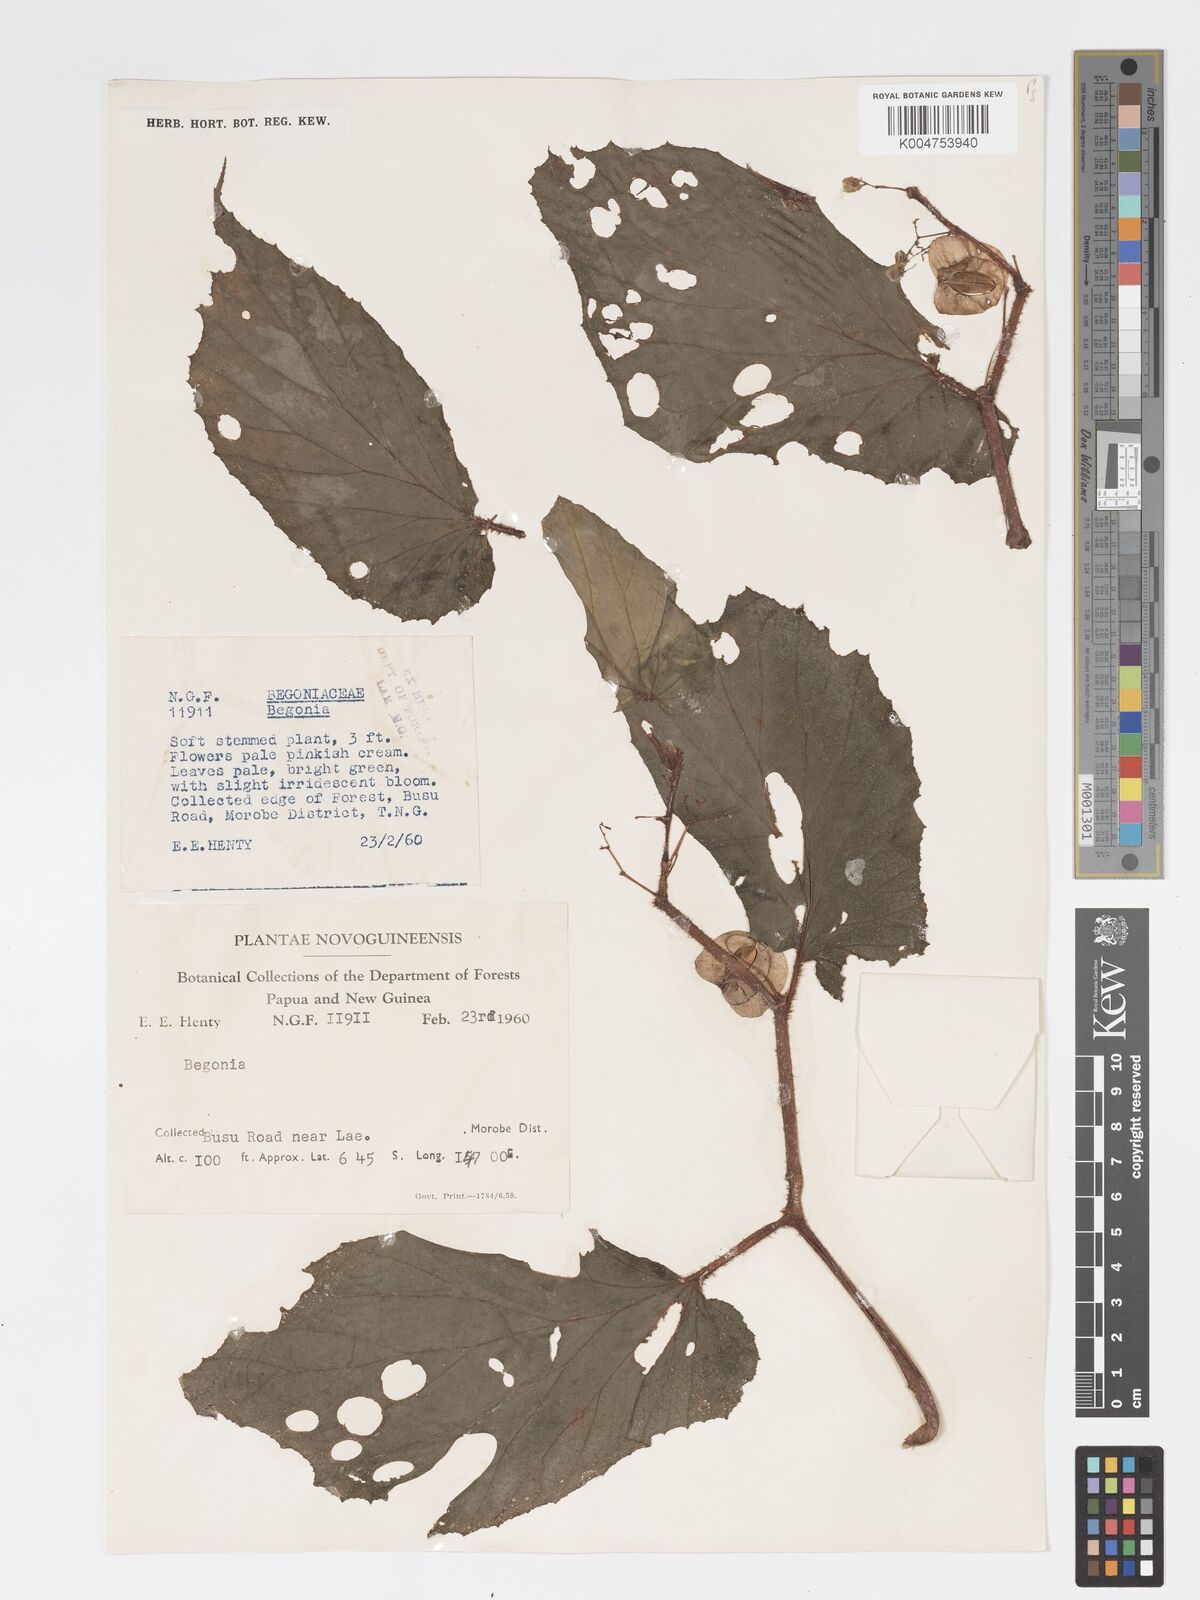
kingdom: Plantae
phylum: Tracheophyta
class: Magnoliopsida
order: Cucurbitales
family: Begoniaceae
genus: Begonia
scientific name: Begonia torricellensis
